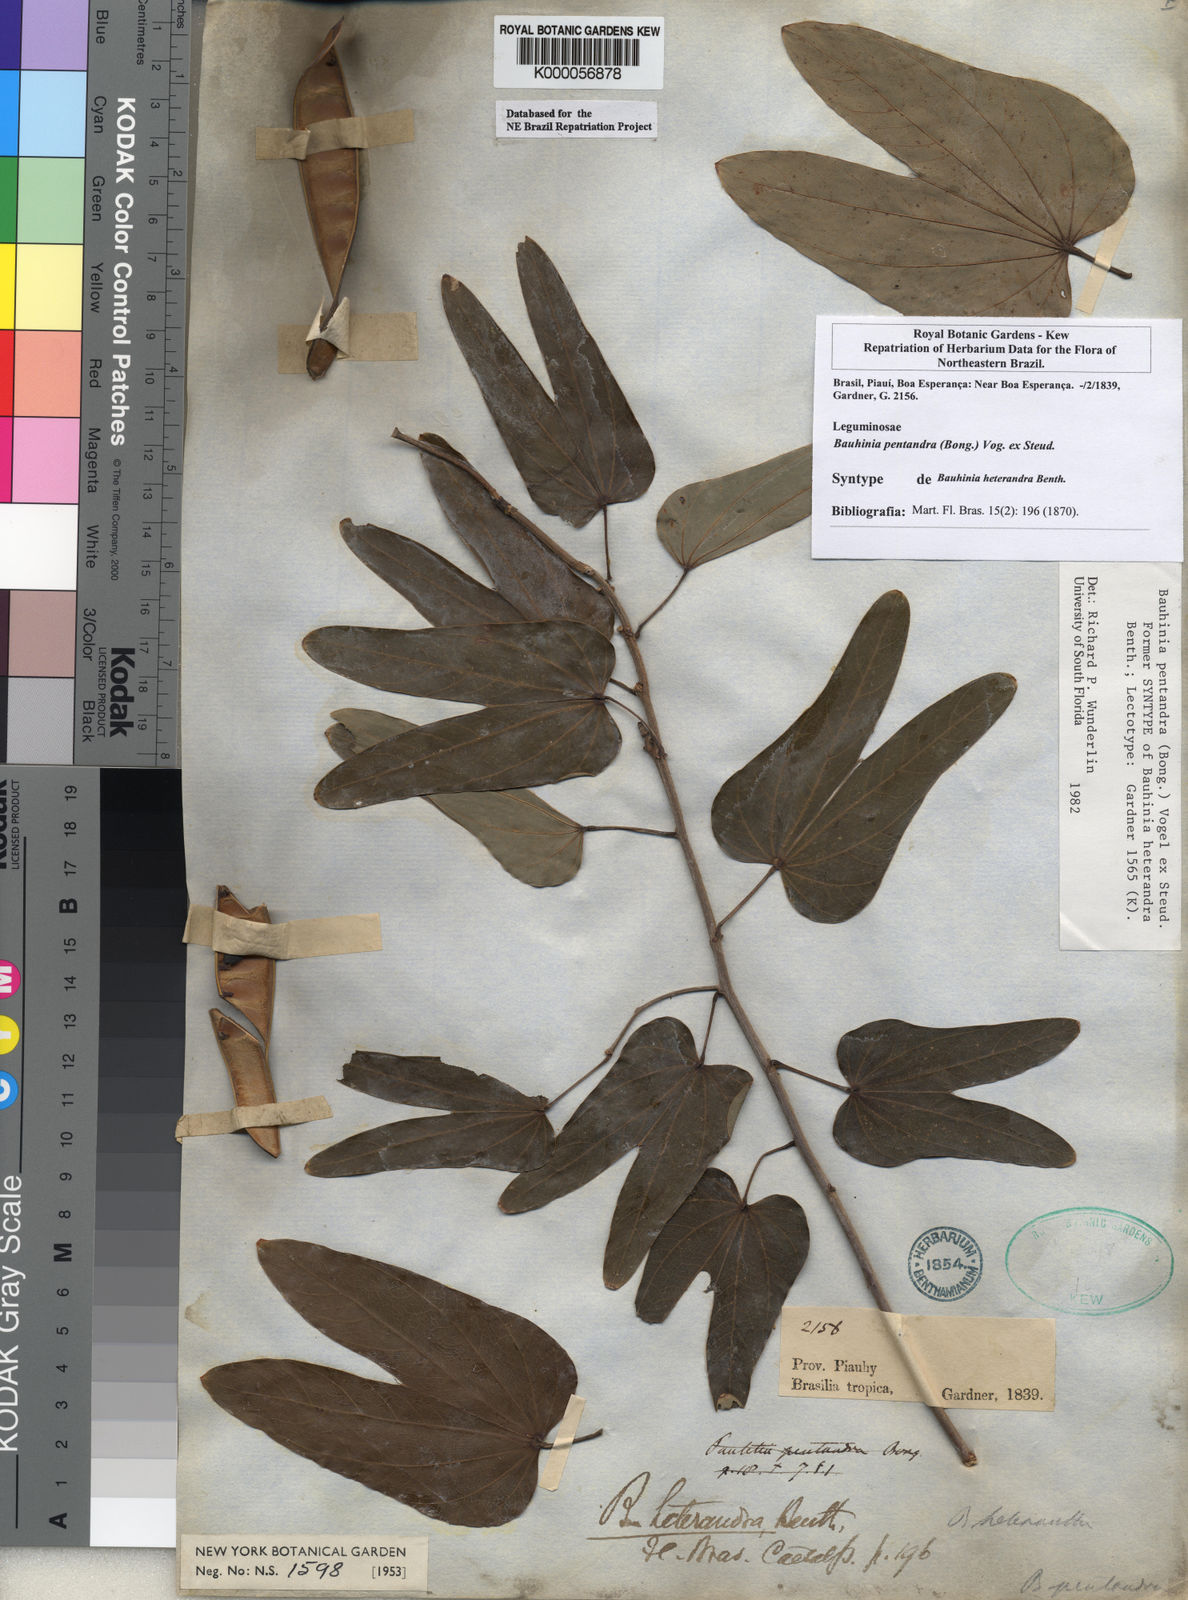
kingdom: Plantae
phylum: Tracheophyta
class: Magnoliopsida
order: Fabales
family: Fabaceae
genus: Bauhinia
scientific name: Bauhinia
